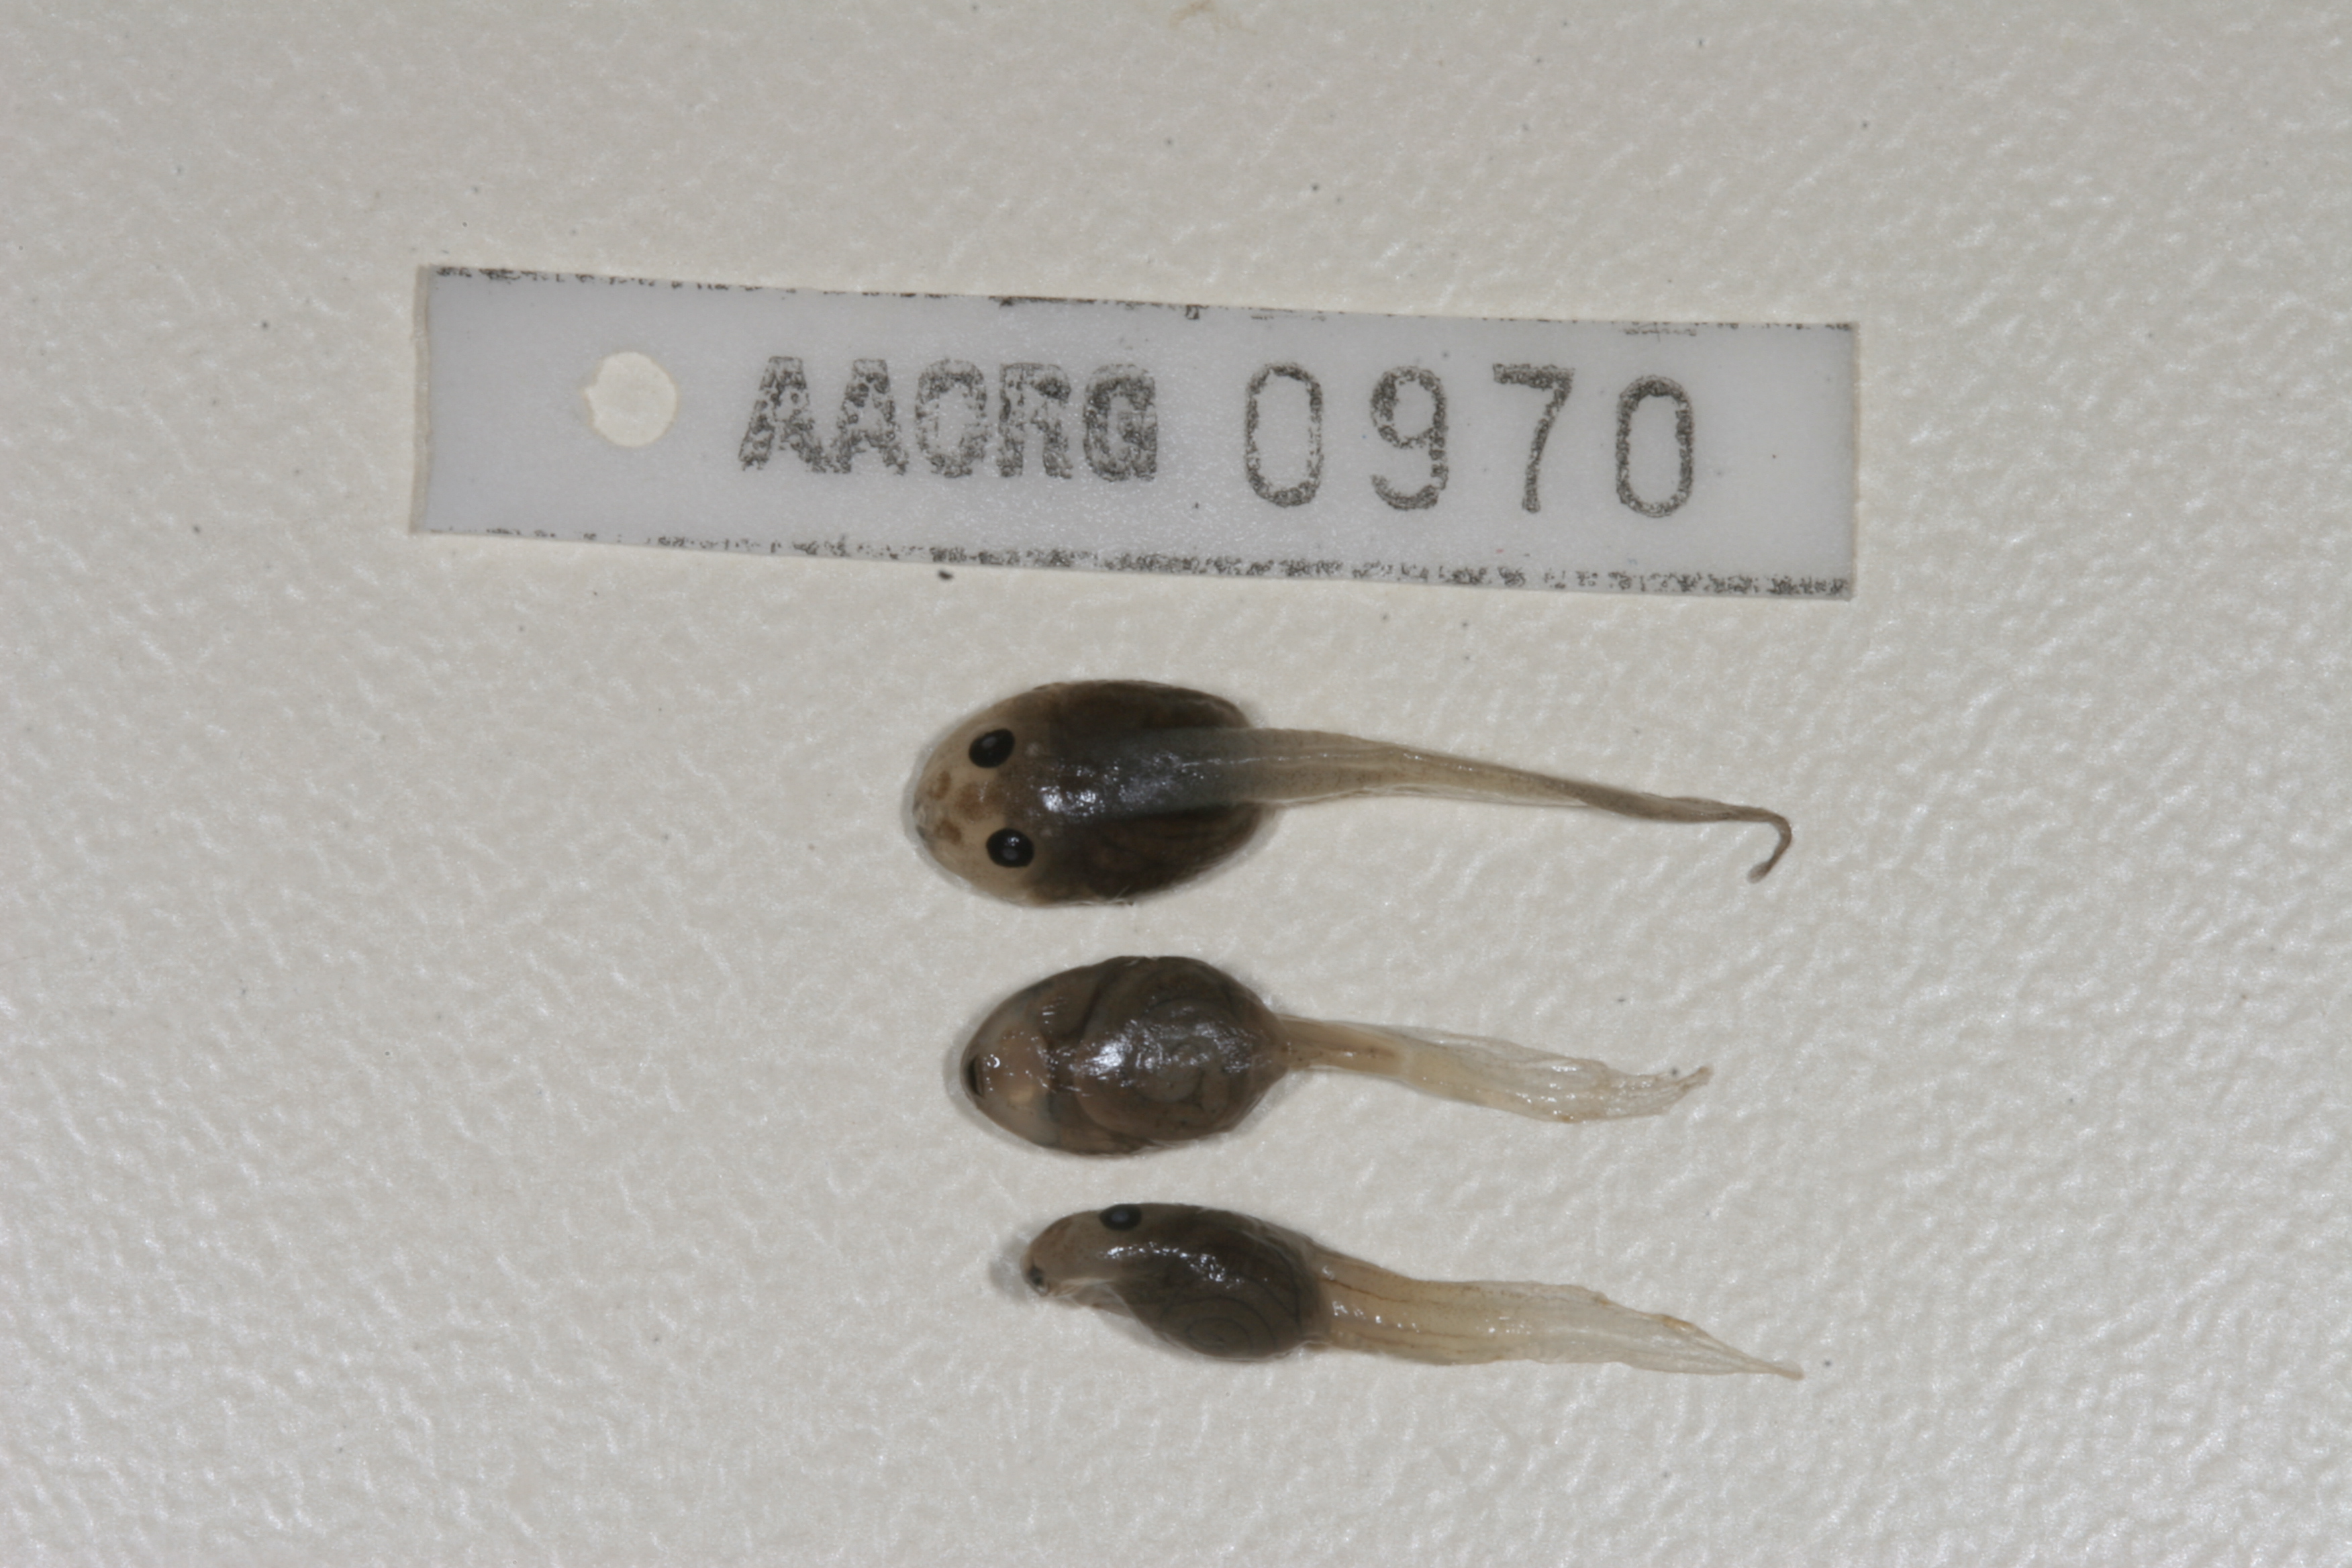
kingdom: Animalia
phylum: Chordata
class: Amphibia
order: Anura
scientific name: Anura
